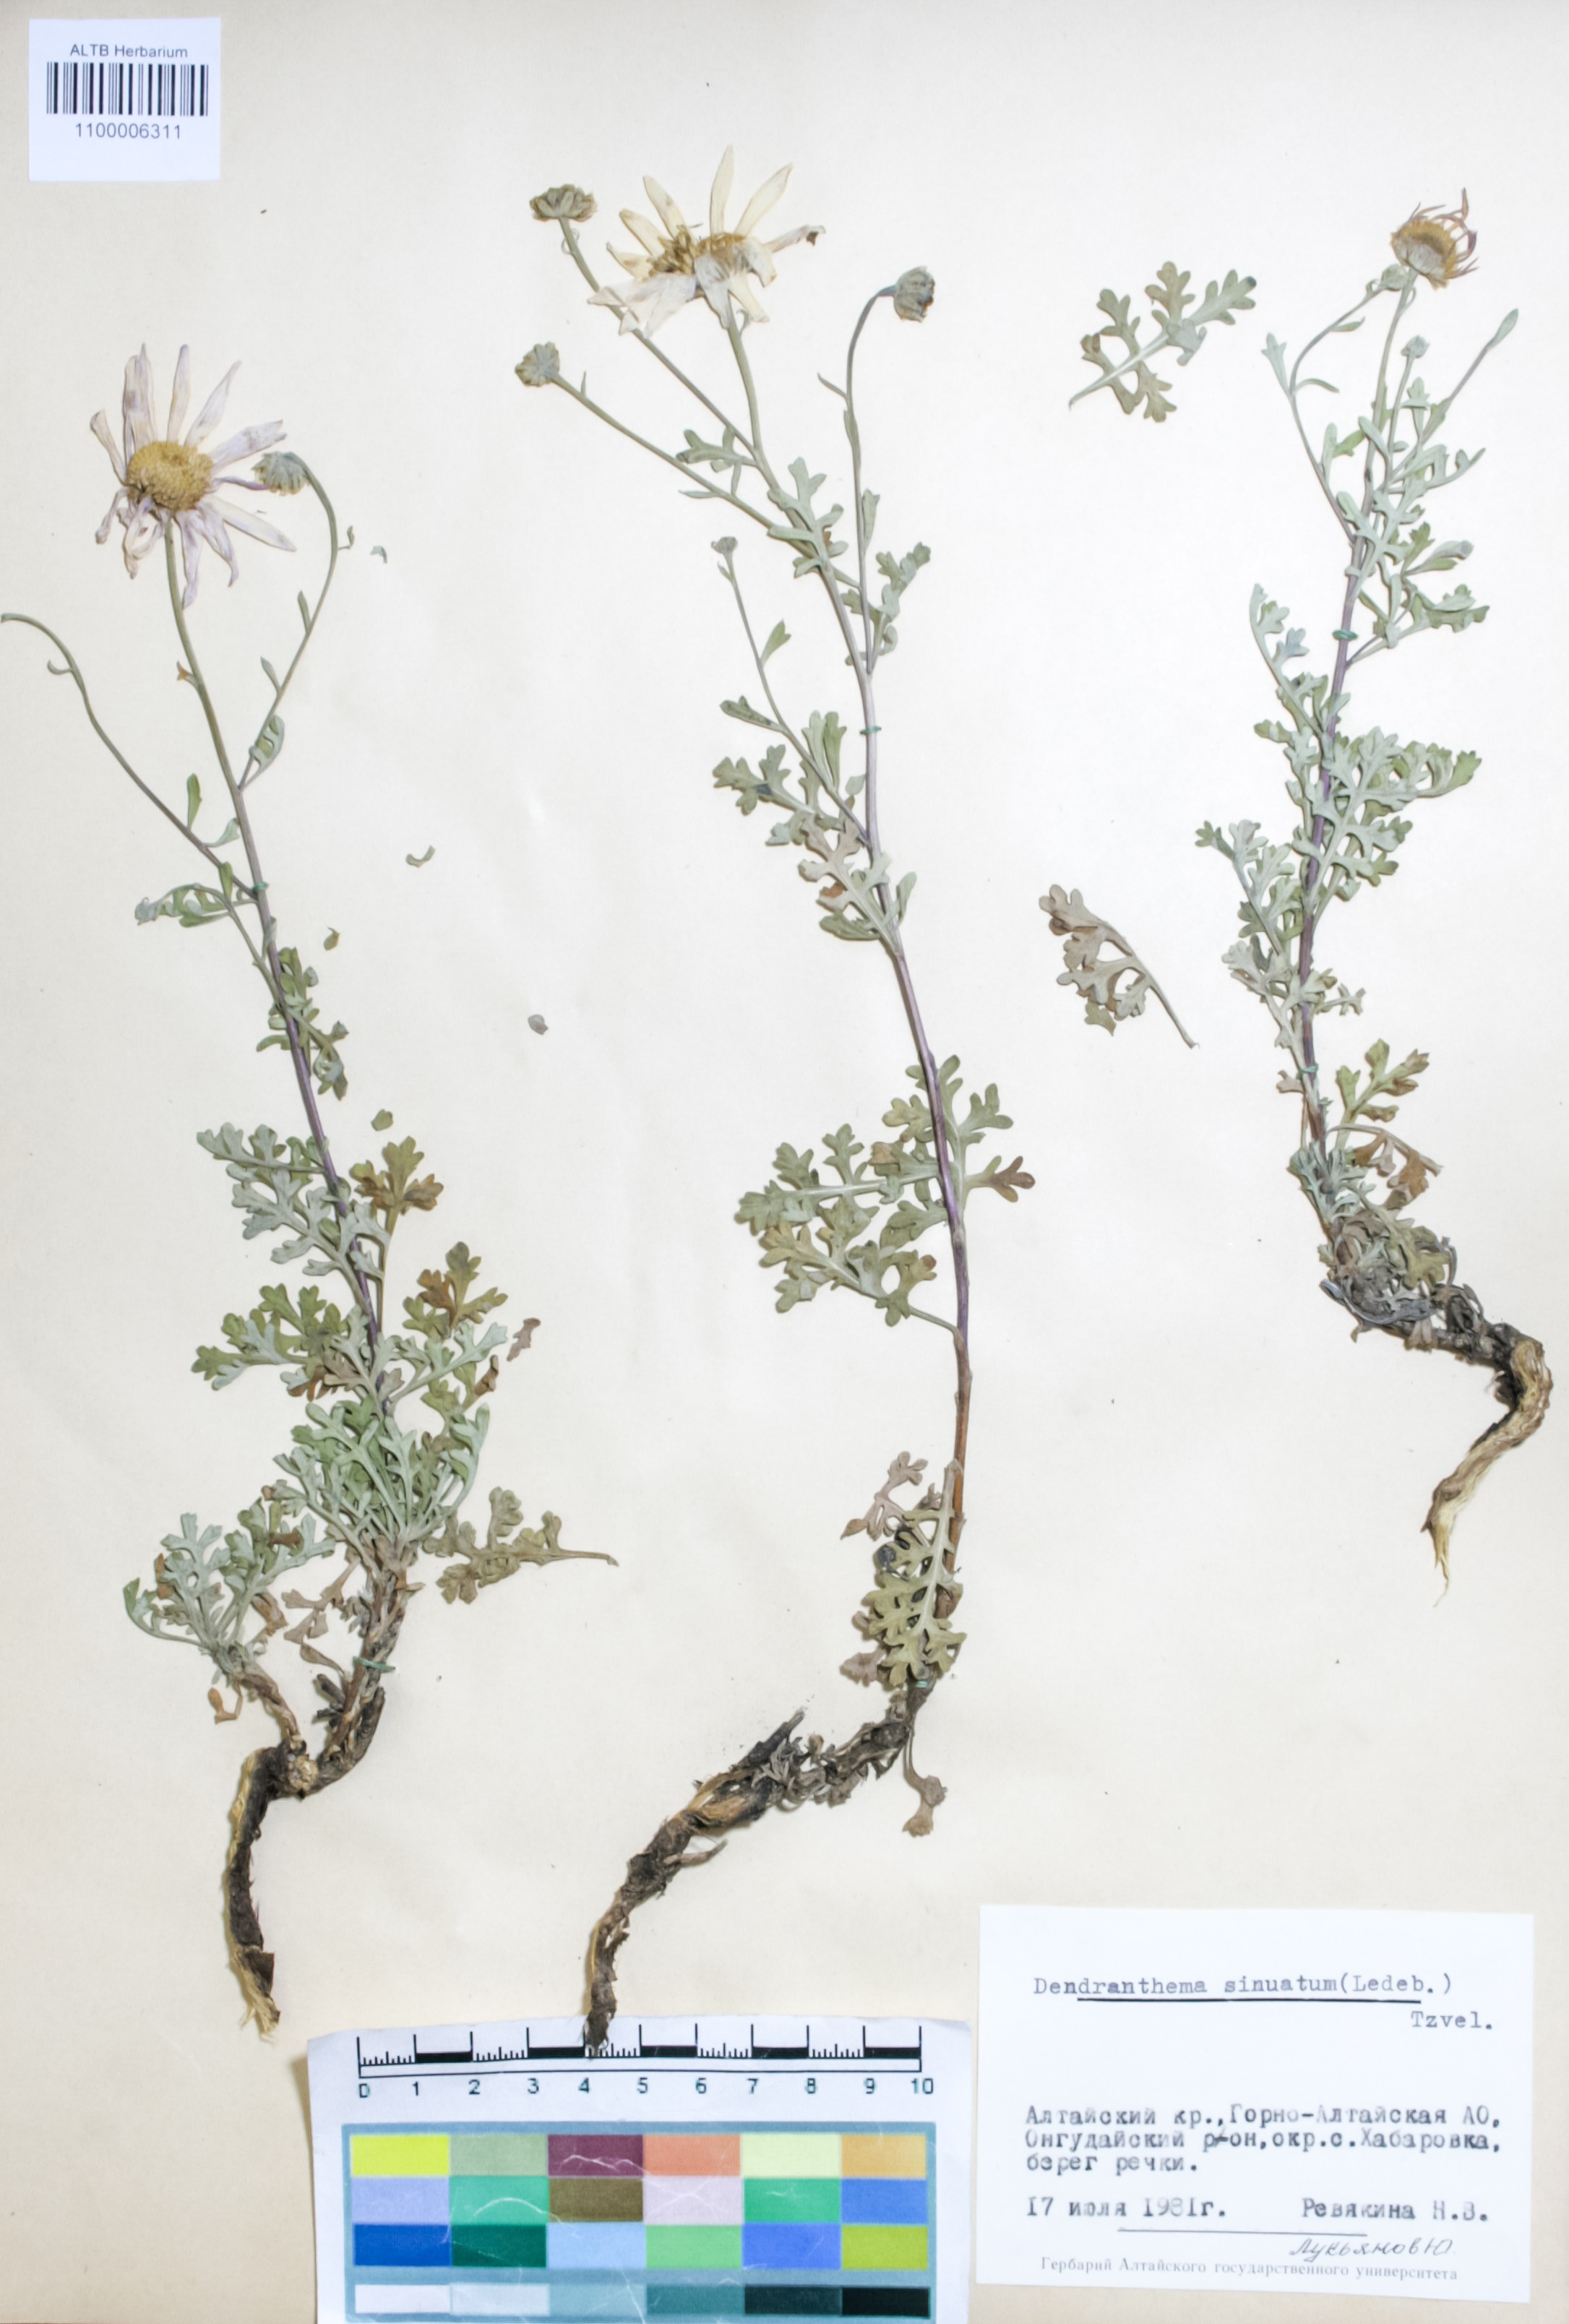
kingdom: Plantae
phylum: Tracheophyta
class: Magnoliopsida
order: Asterales
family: Asteraceae
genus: Chrysanthemum
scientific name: Chrysanthemum sinuatum
